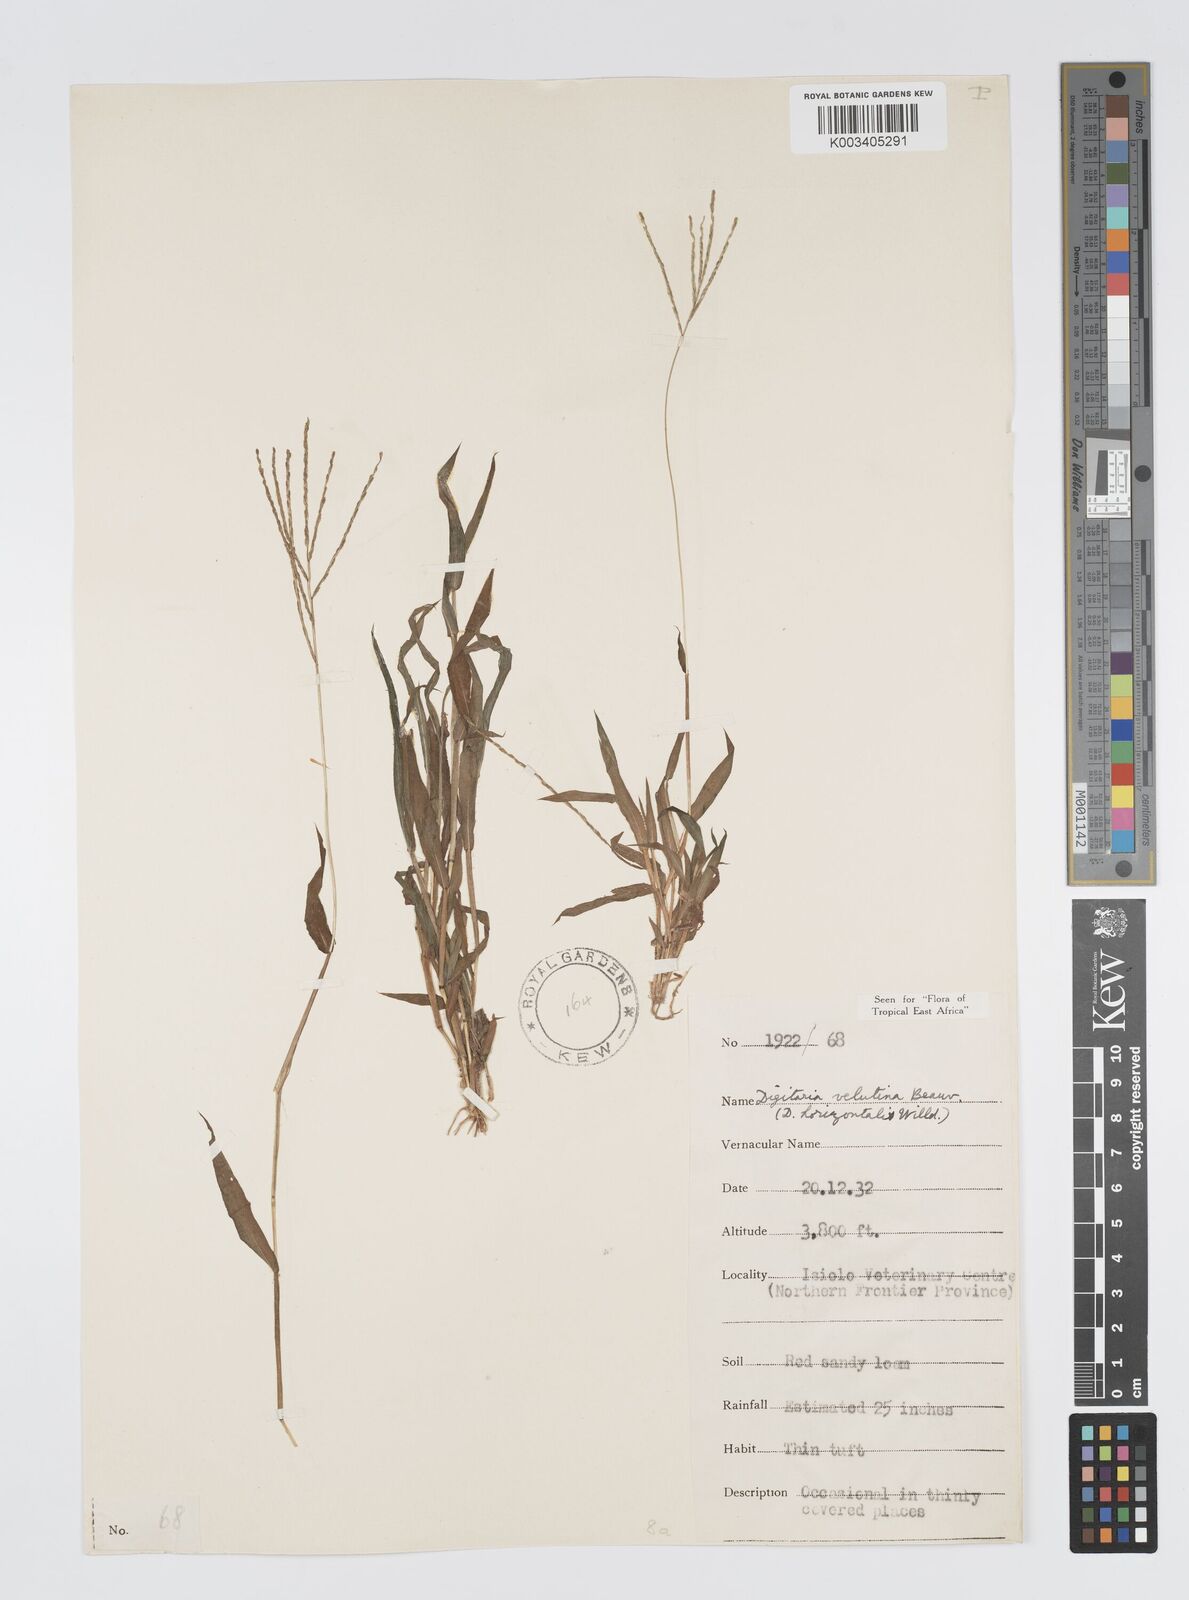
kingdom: Plantae
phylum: Tracheophyta
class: Liliopsida
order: Poales
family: Poaceae
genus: Digitaria
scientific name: Digitaria velutina
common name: Long-plume finger grass
